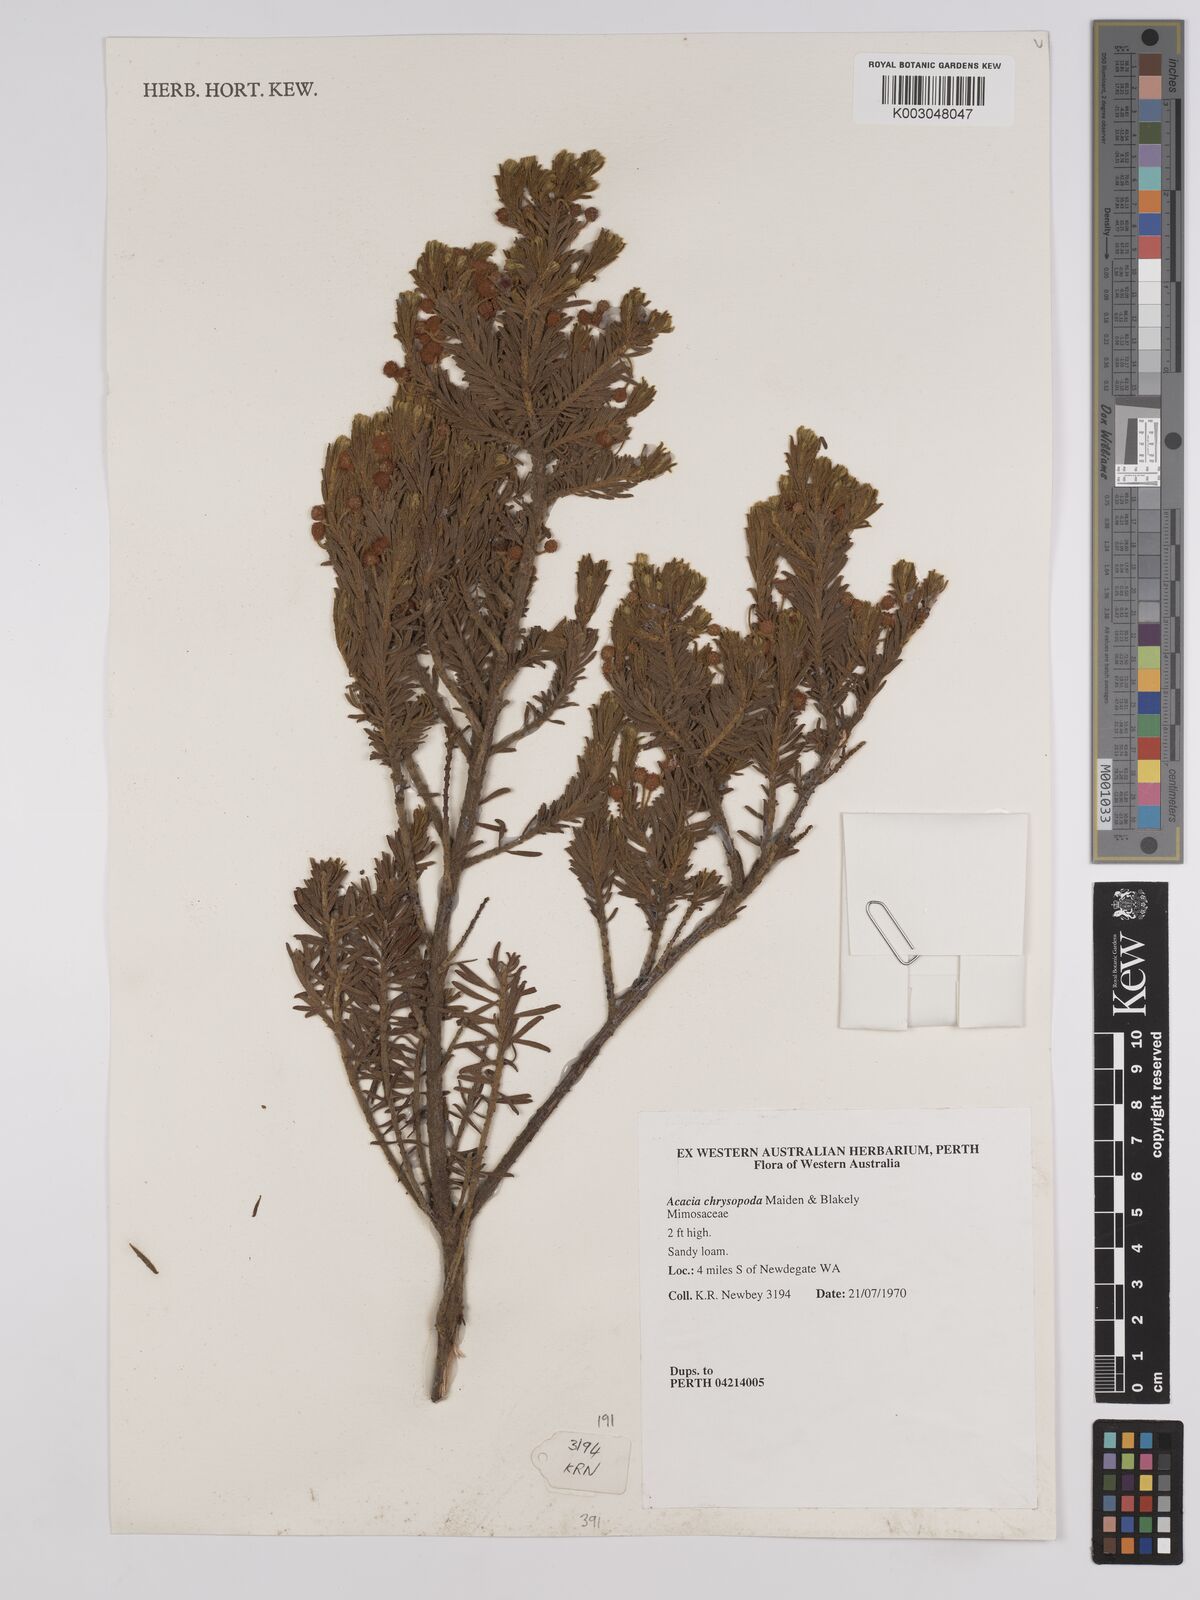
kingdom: Plantae
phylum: Tracheophyta
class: Magnoliopsida
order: Fabales
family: Fabaceae
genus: Acacia
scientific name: Acacia chrysopoda
